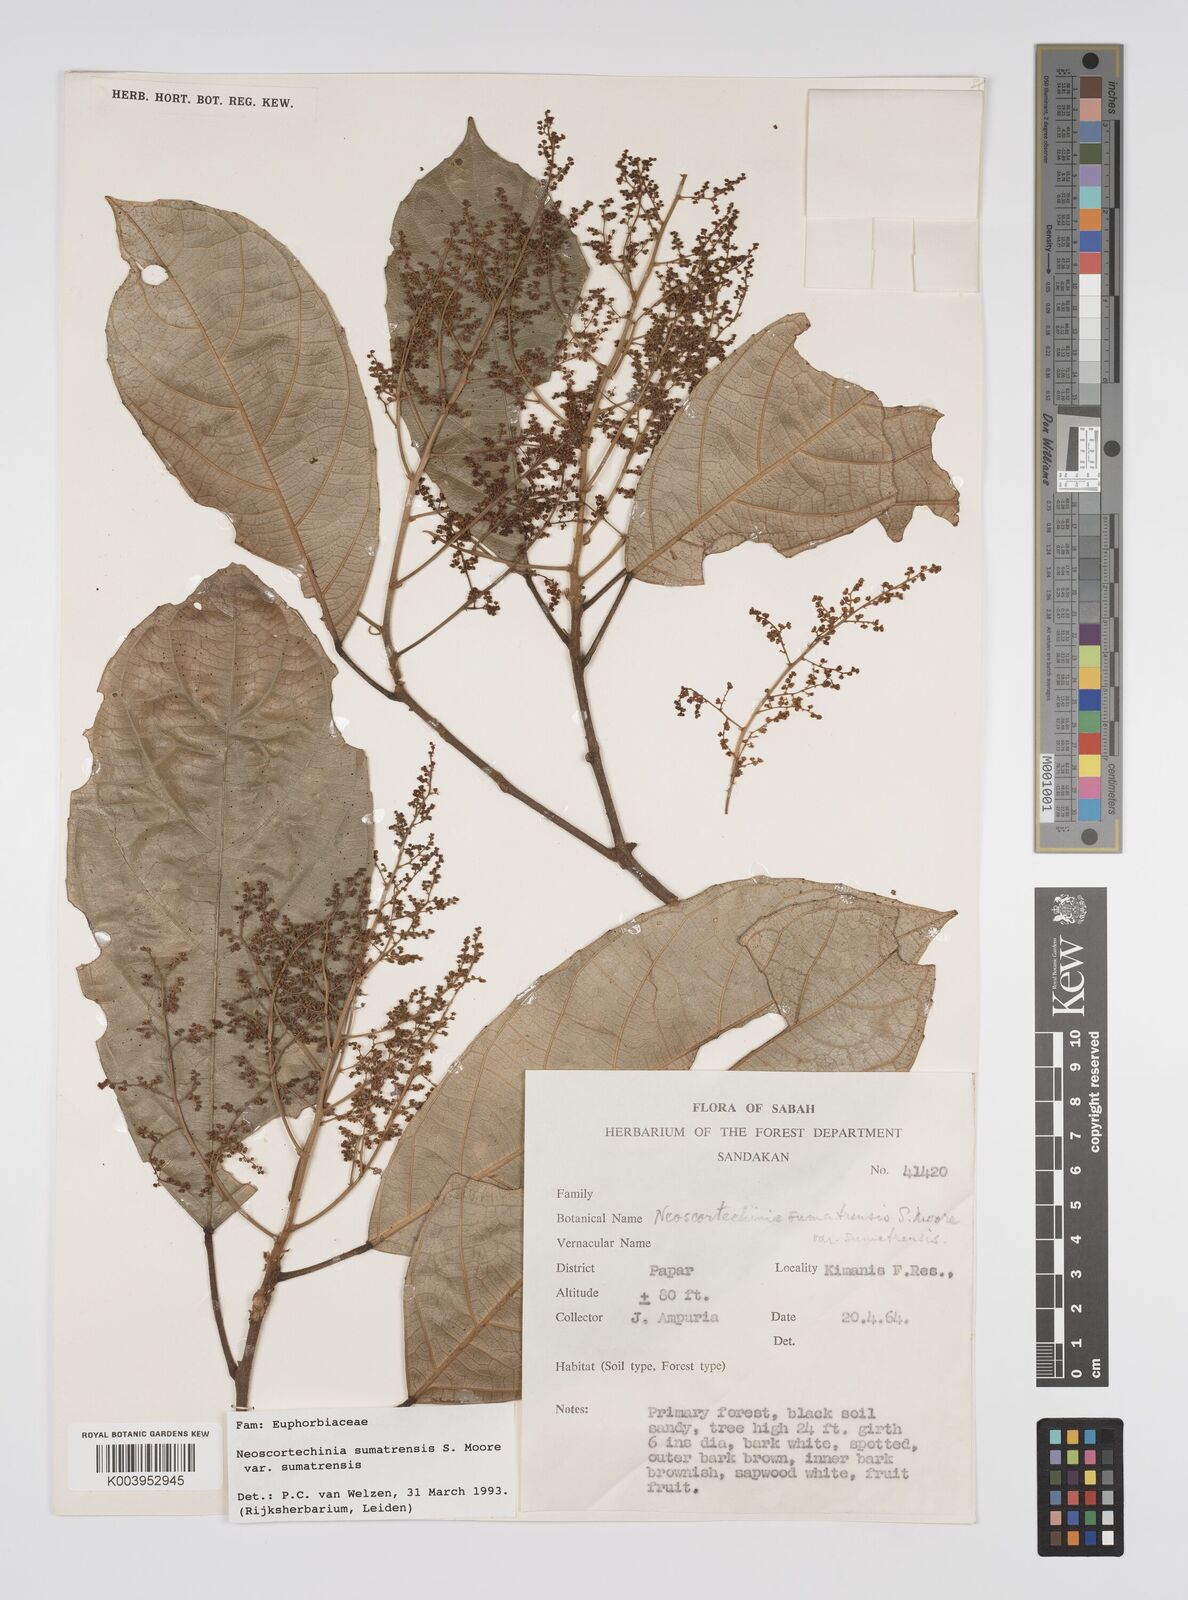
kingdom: Plantae
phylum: Tracheophyta
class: Magnoliopsida
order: Malpighiales
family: Euphorbiaceae
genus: Neoscortechinia
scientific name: Neoscortechinia sumatrensis
